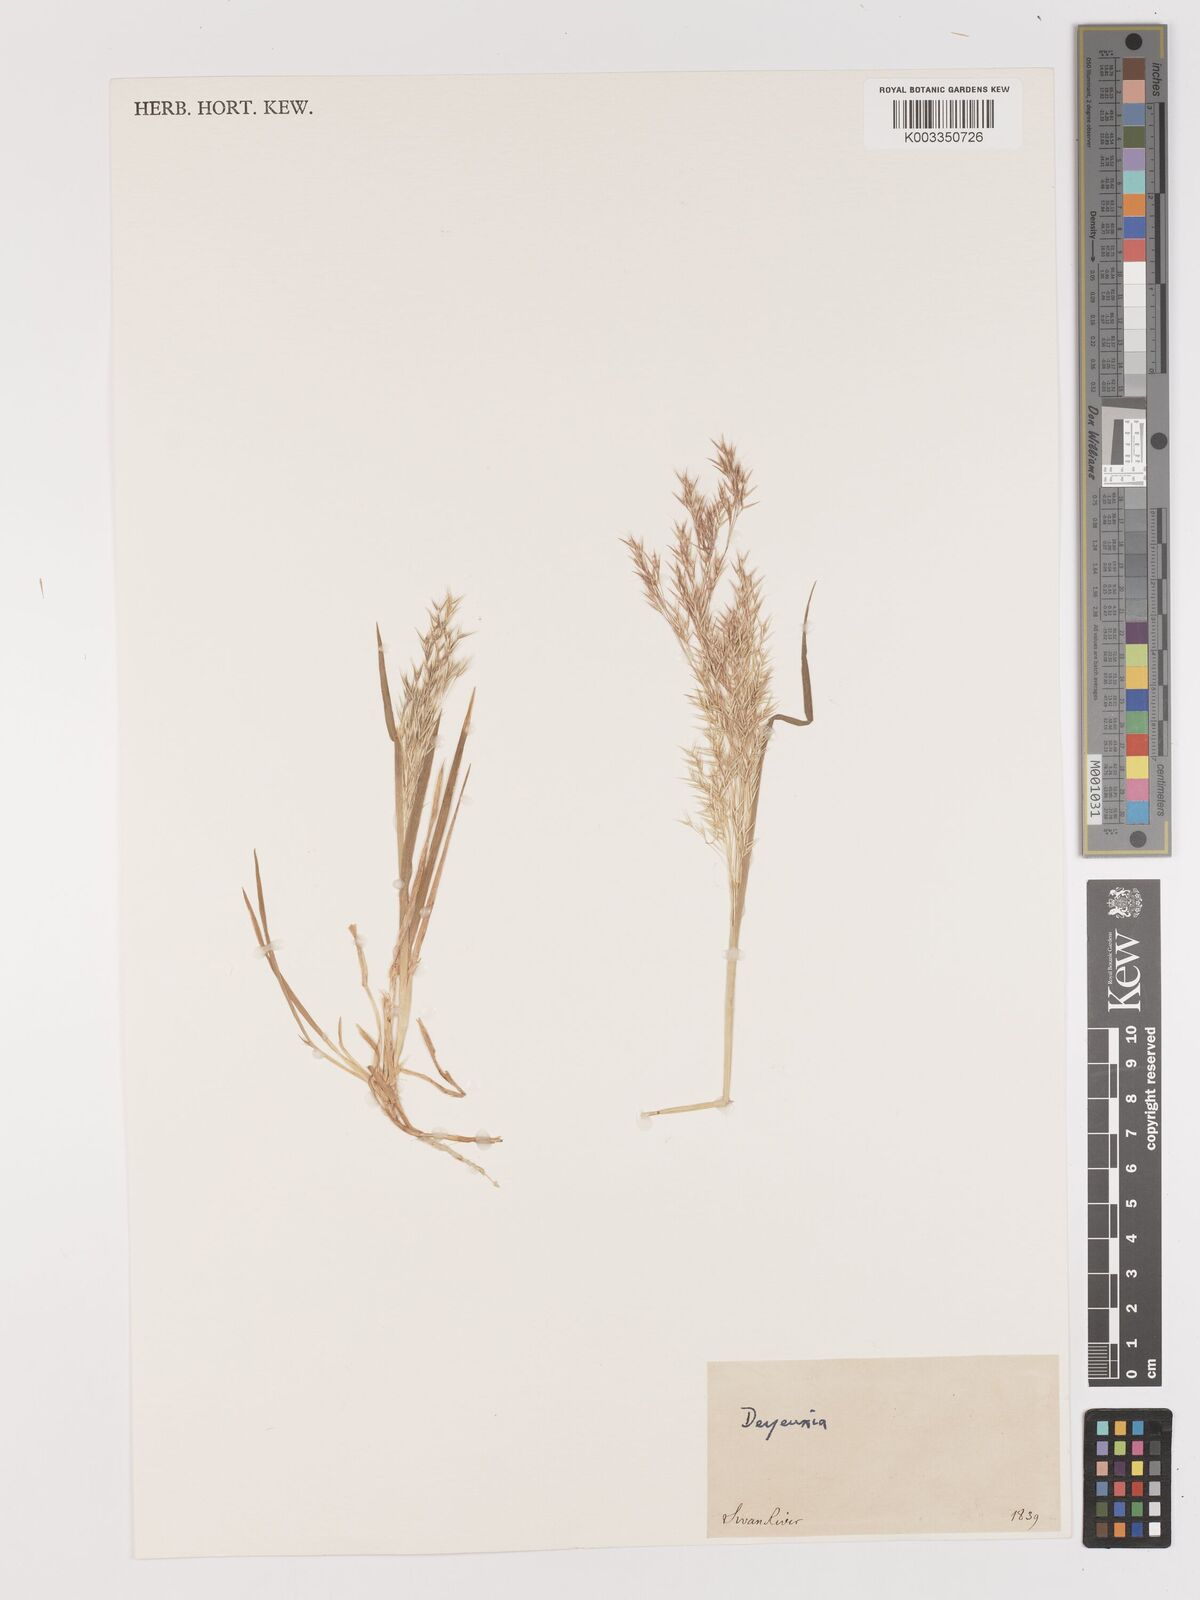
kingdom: Plantae
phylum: Tracheophyta
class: Liliopsida
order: Poales
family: Poaceae
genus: Lachnagrostis
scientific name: Lachnagrostis billardierei
